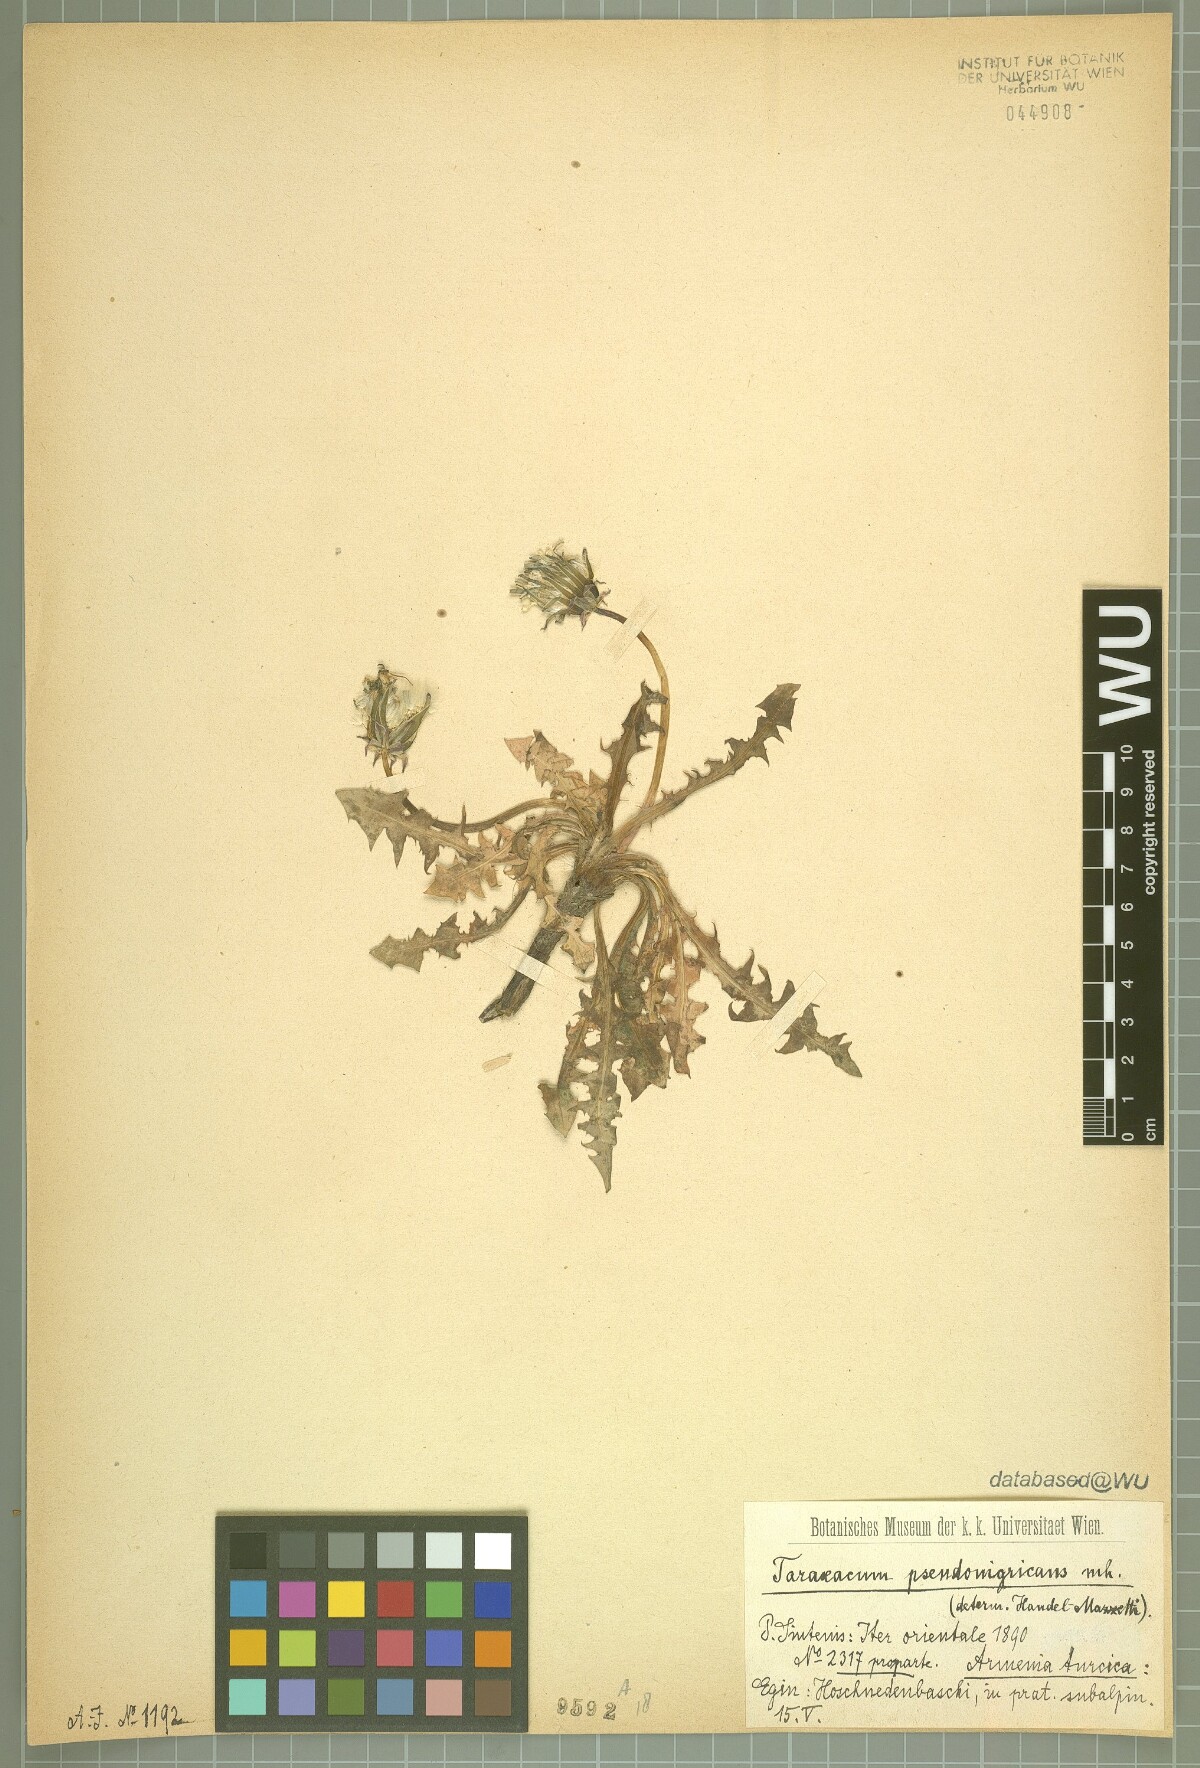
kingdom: Plantae
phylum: Tracheophyta
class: Magnoliopsida
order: Asterales
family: Asteraceae
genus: Taraxacum
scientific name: Taraxacum pseudonigricans
